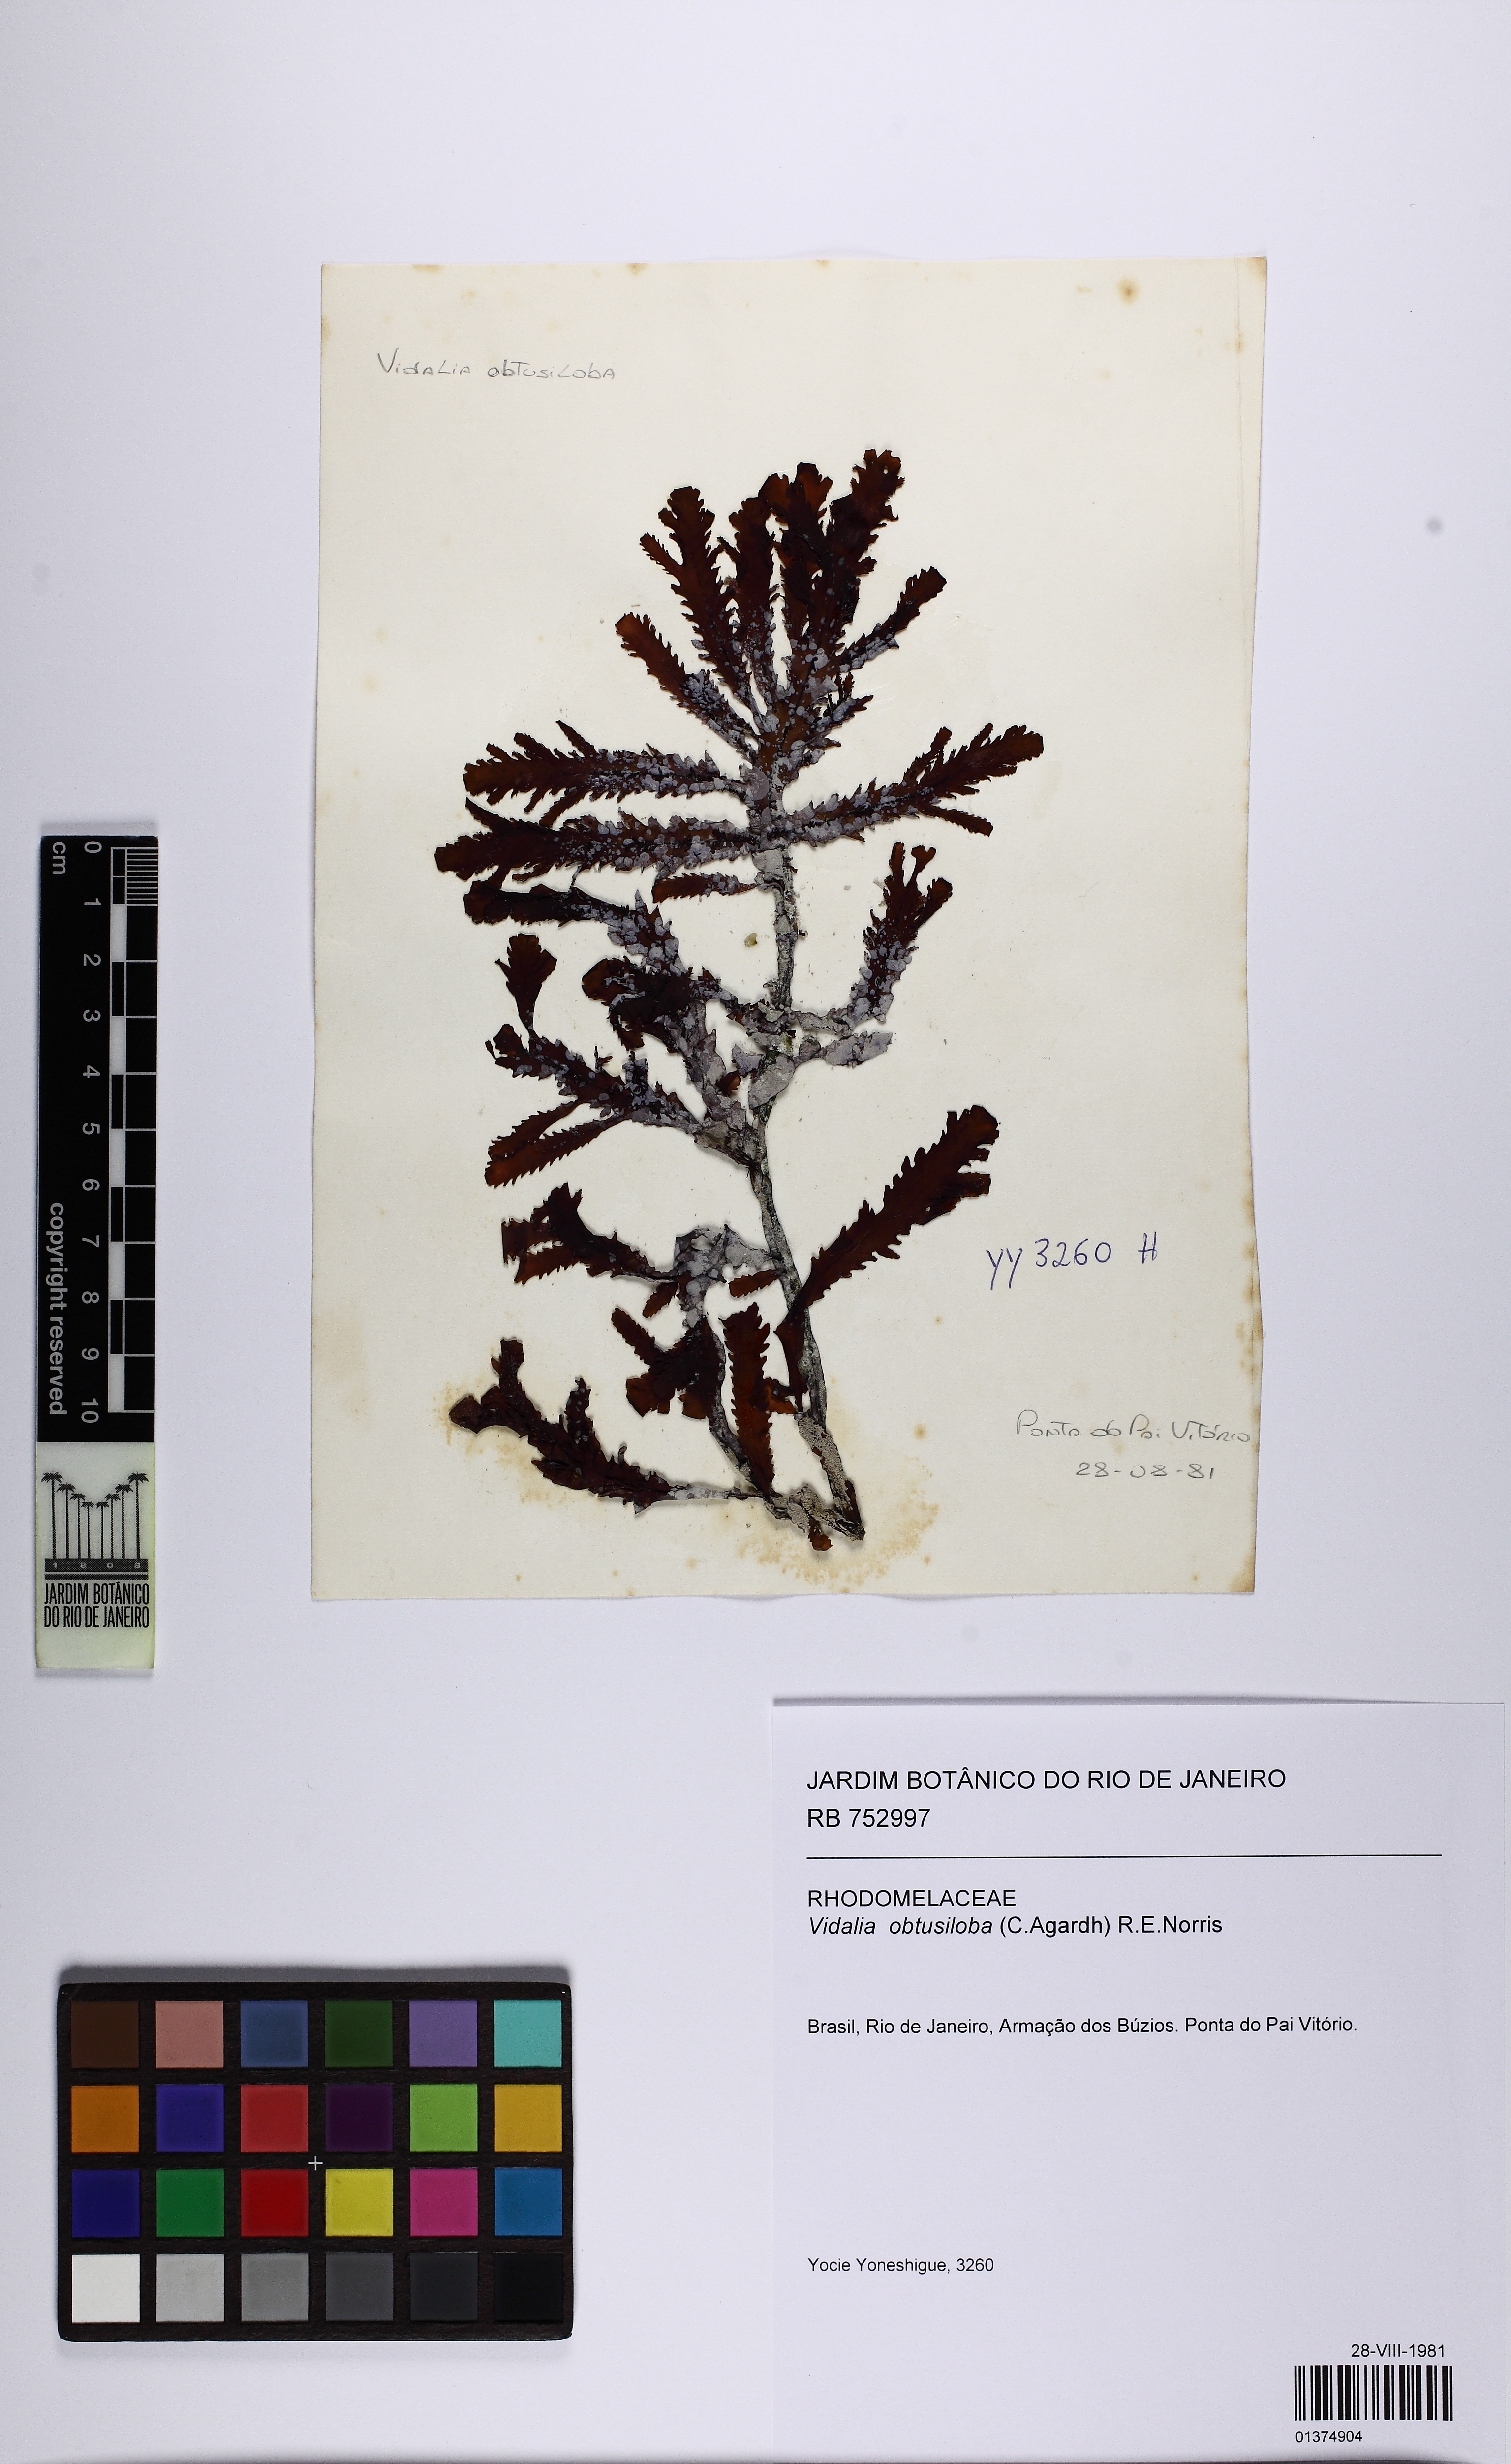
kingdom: Plantae
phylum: Rhodophyta
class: Florideophyceae
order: Ceramiales
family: Rhodomelaceae
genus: Osmundaria
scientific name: Osmundaria obtusiloba
